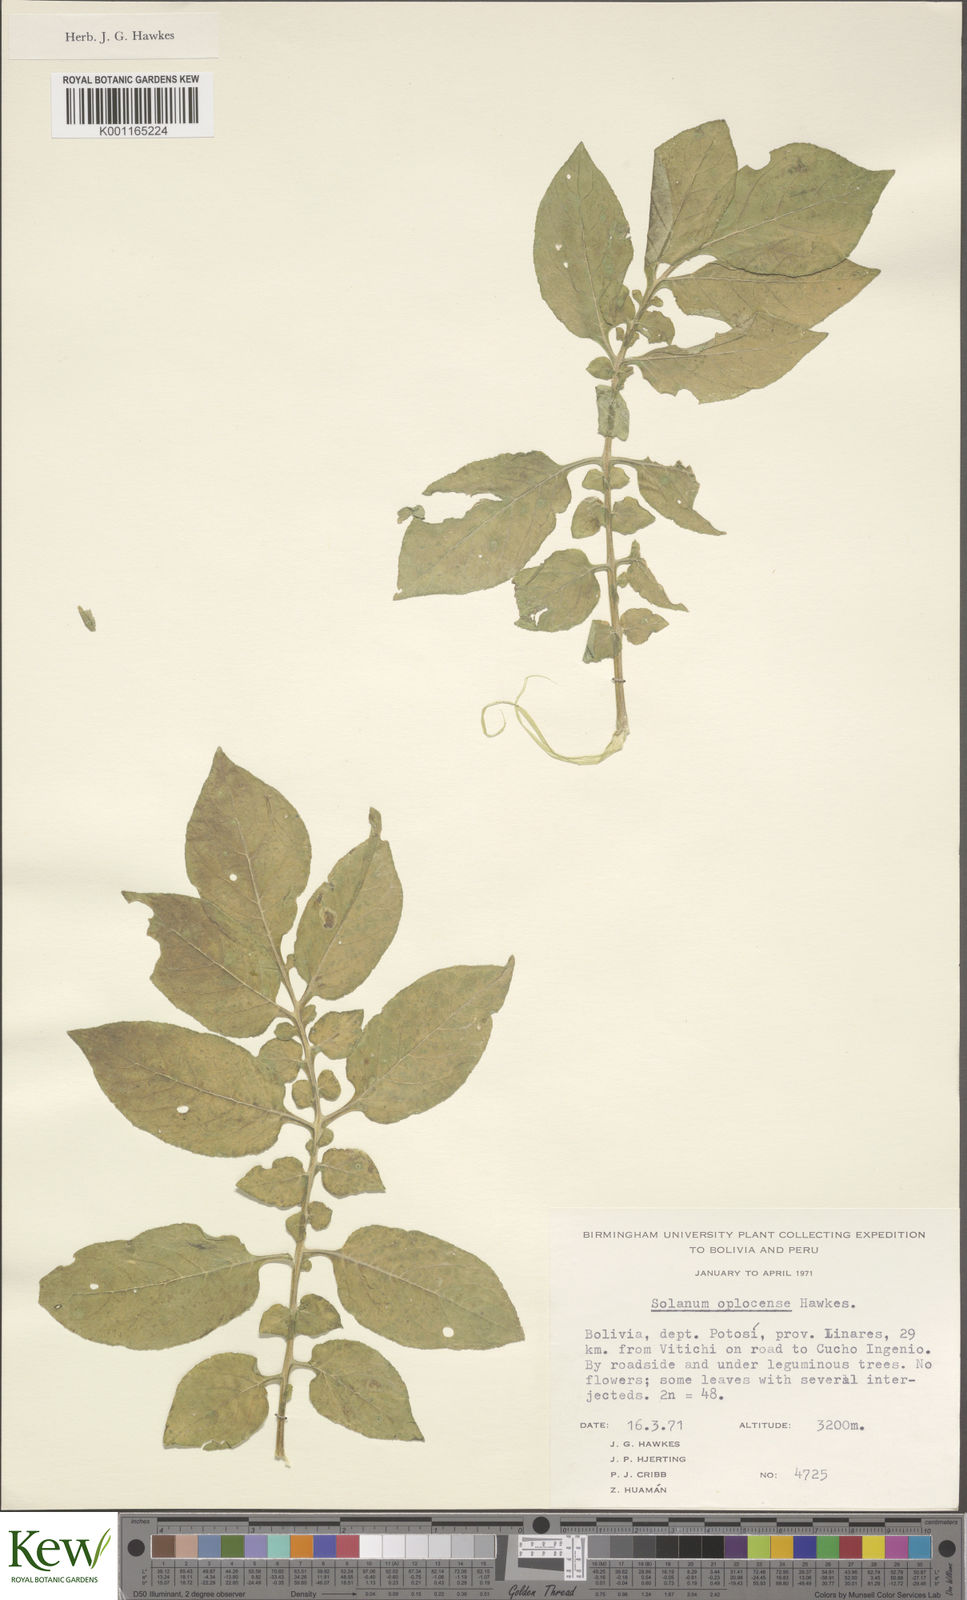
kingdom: Plantae
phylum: Tracheophyta
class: Magnoliopsida
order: Solanales
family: Solanaceae
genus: Solanum
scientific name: Solanum brevicaule
